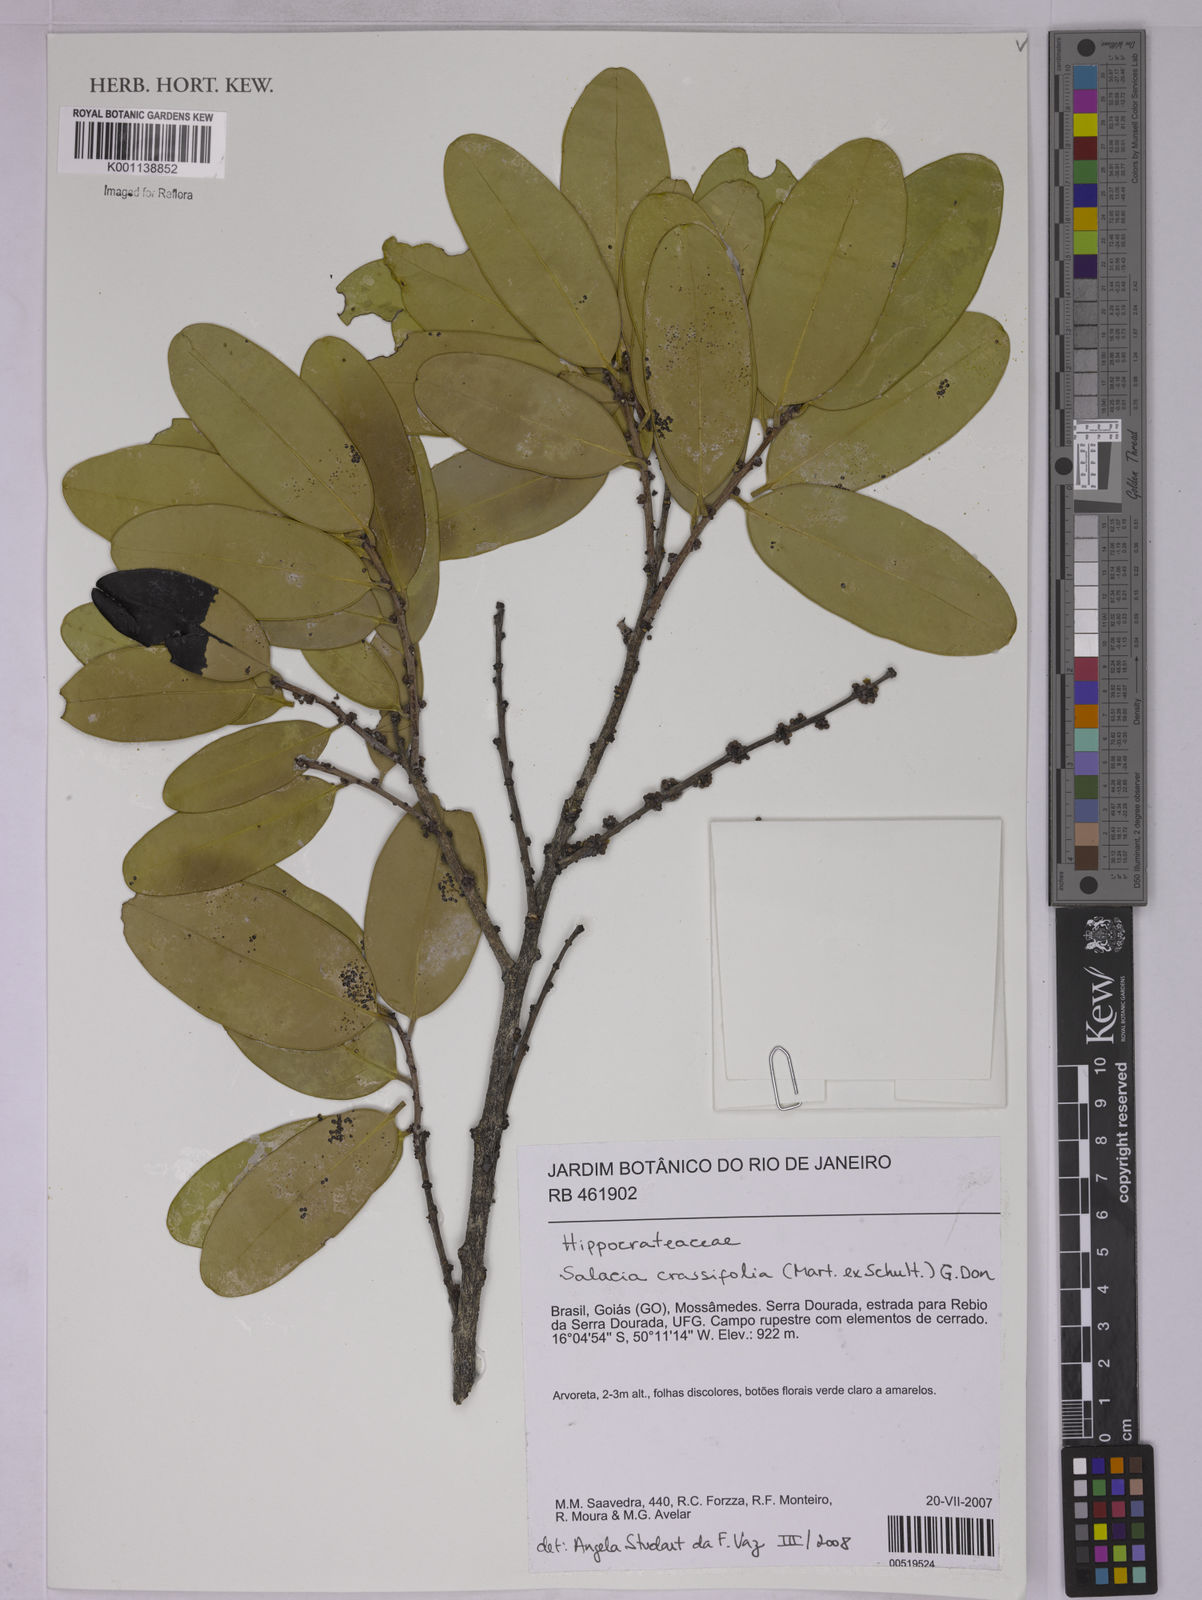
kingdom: Plantae
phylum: Tracheophyta
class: Magnoliopsida
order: Celastrales
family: Celastraceae
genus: Salacia
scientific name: Salacia crassifolia
